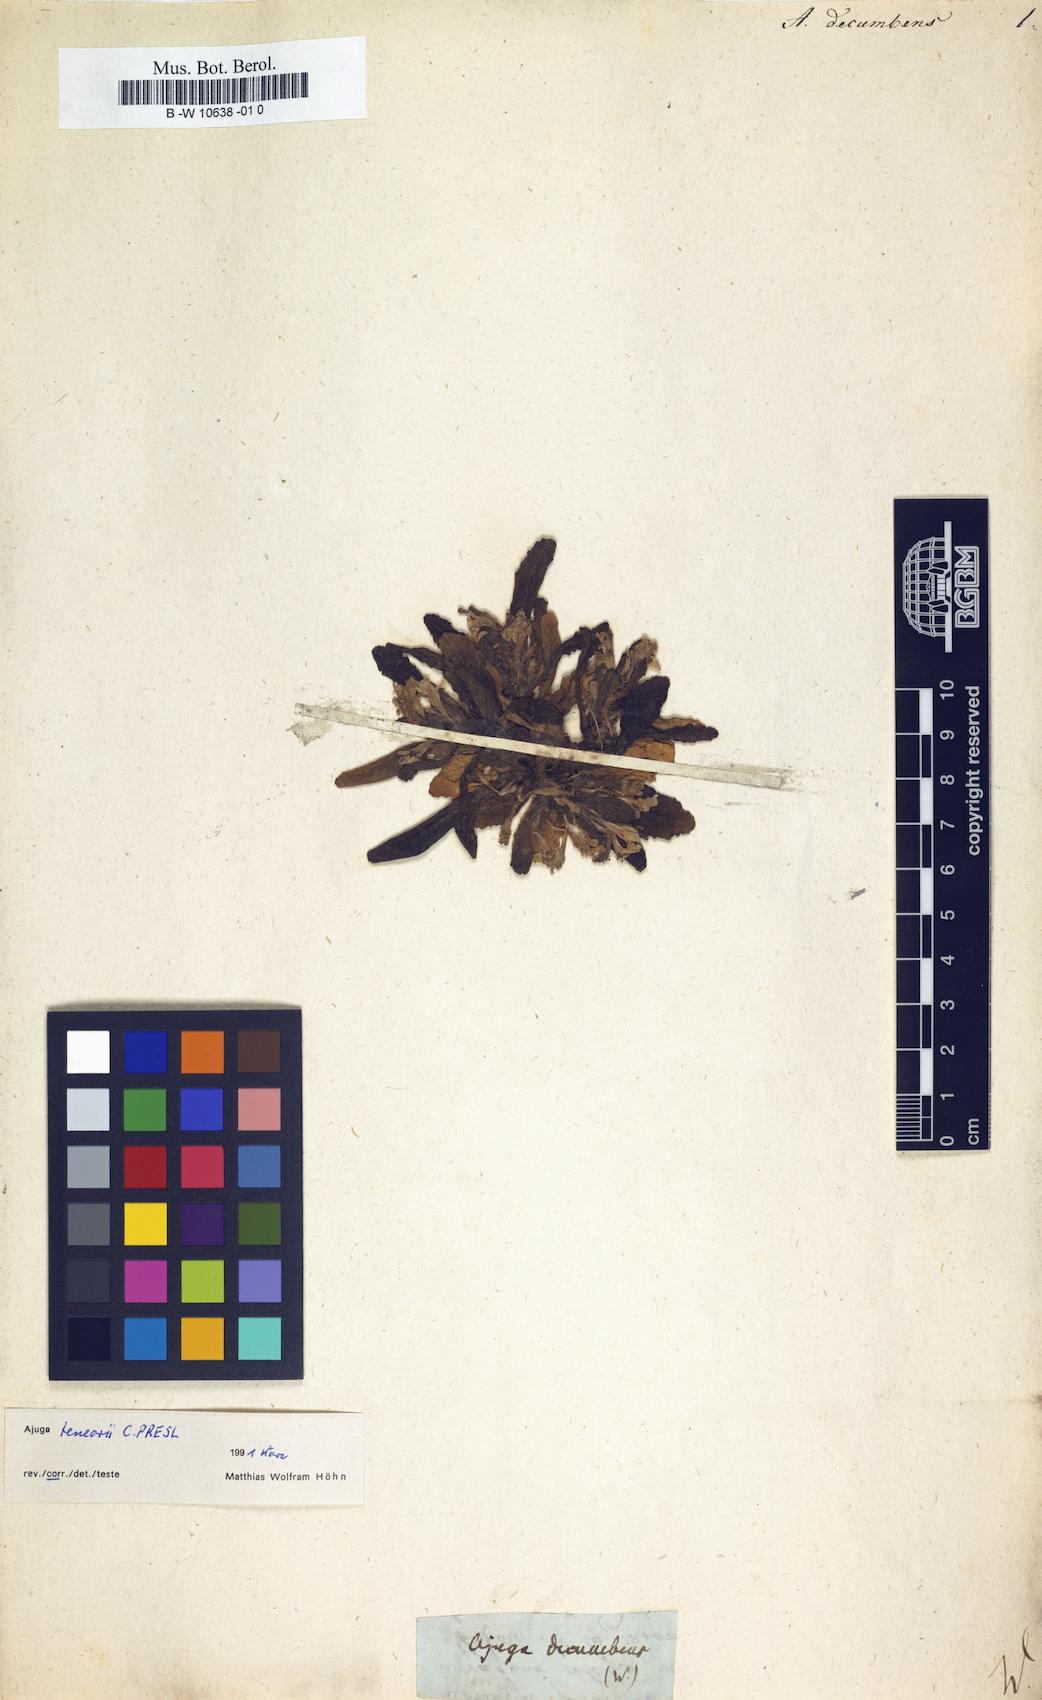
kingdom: Plantae
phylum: Tracheophyta
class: Magnoliopsida
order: Lamiales
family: Lamiaceae
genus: Ajuga
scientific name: Ajuga decumbens
